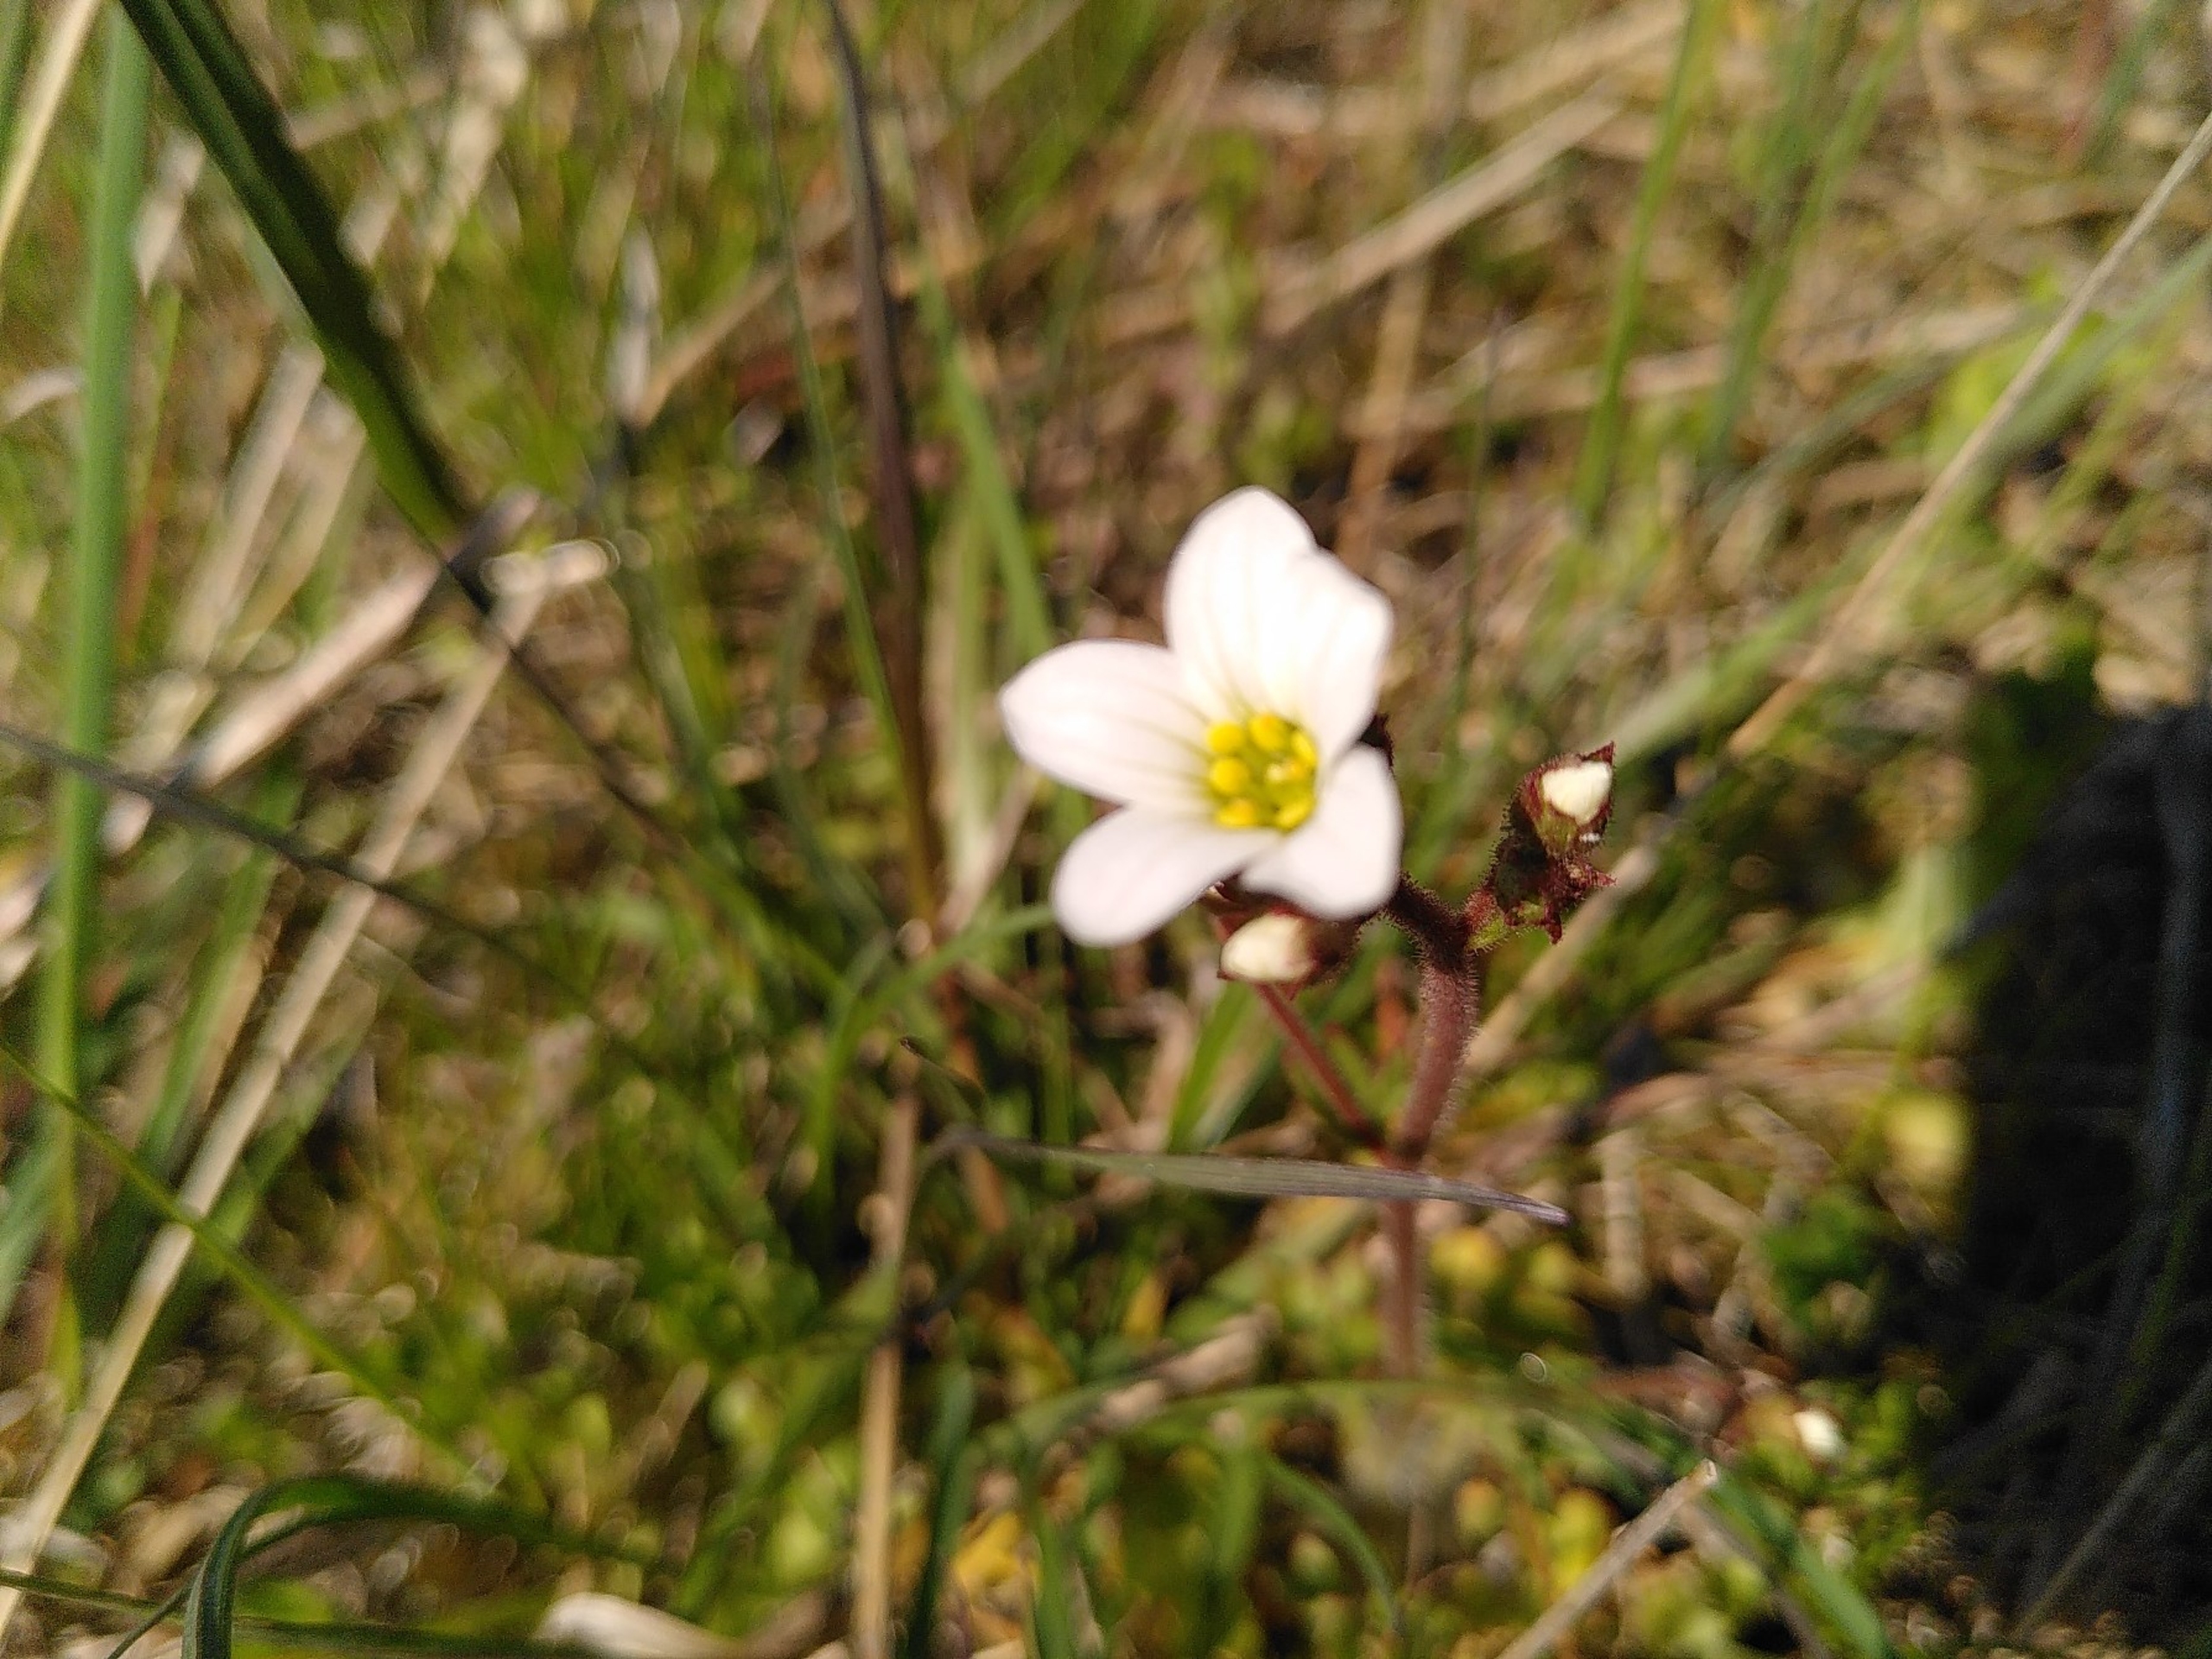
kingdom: Plantae
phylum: Tracheophyta
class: Magnoliopsida
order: Saxifragales
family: Saxifragaceae
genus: Saxifraga
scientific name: Saxifraga granulata
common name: Kornet stenbræk
